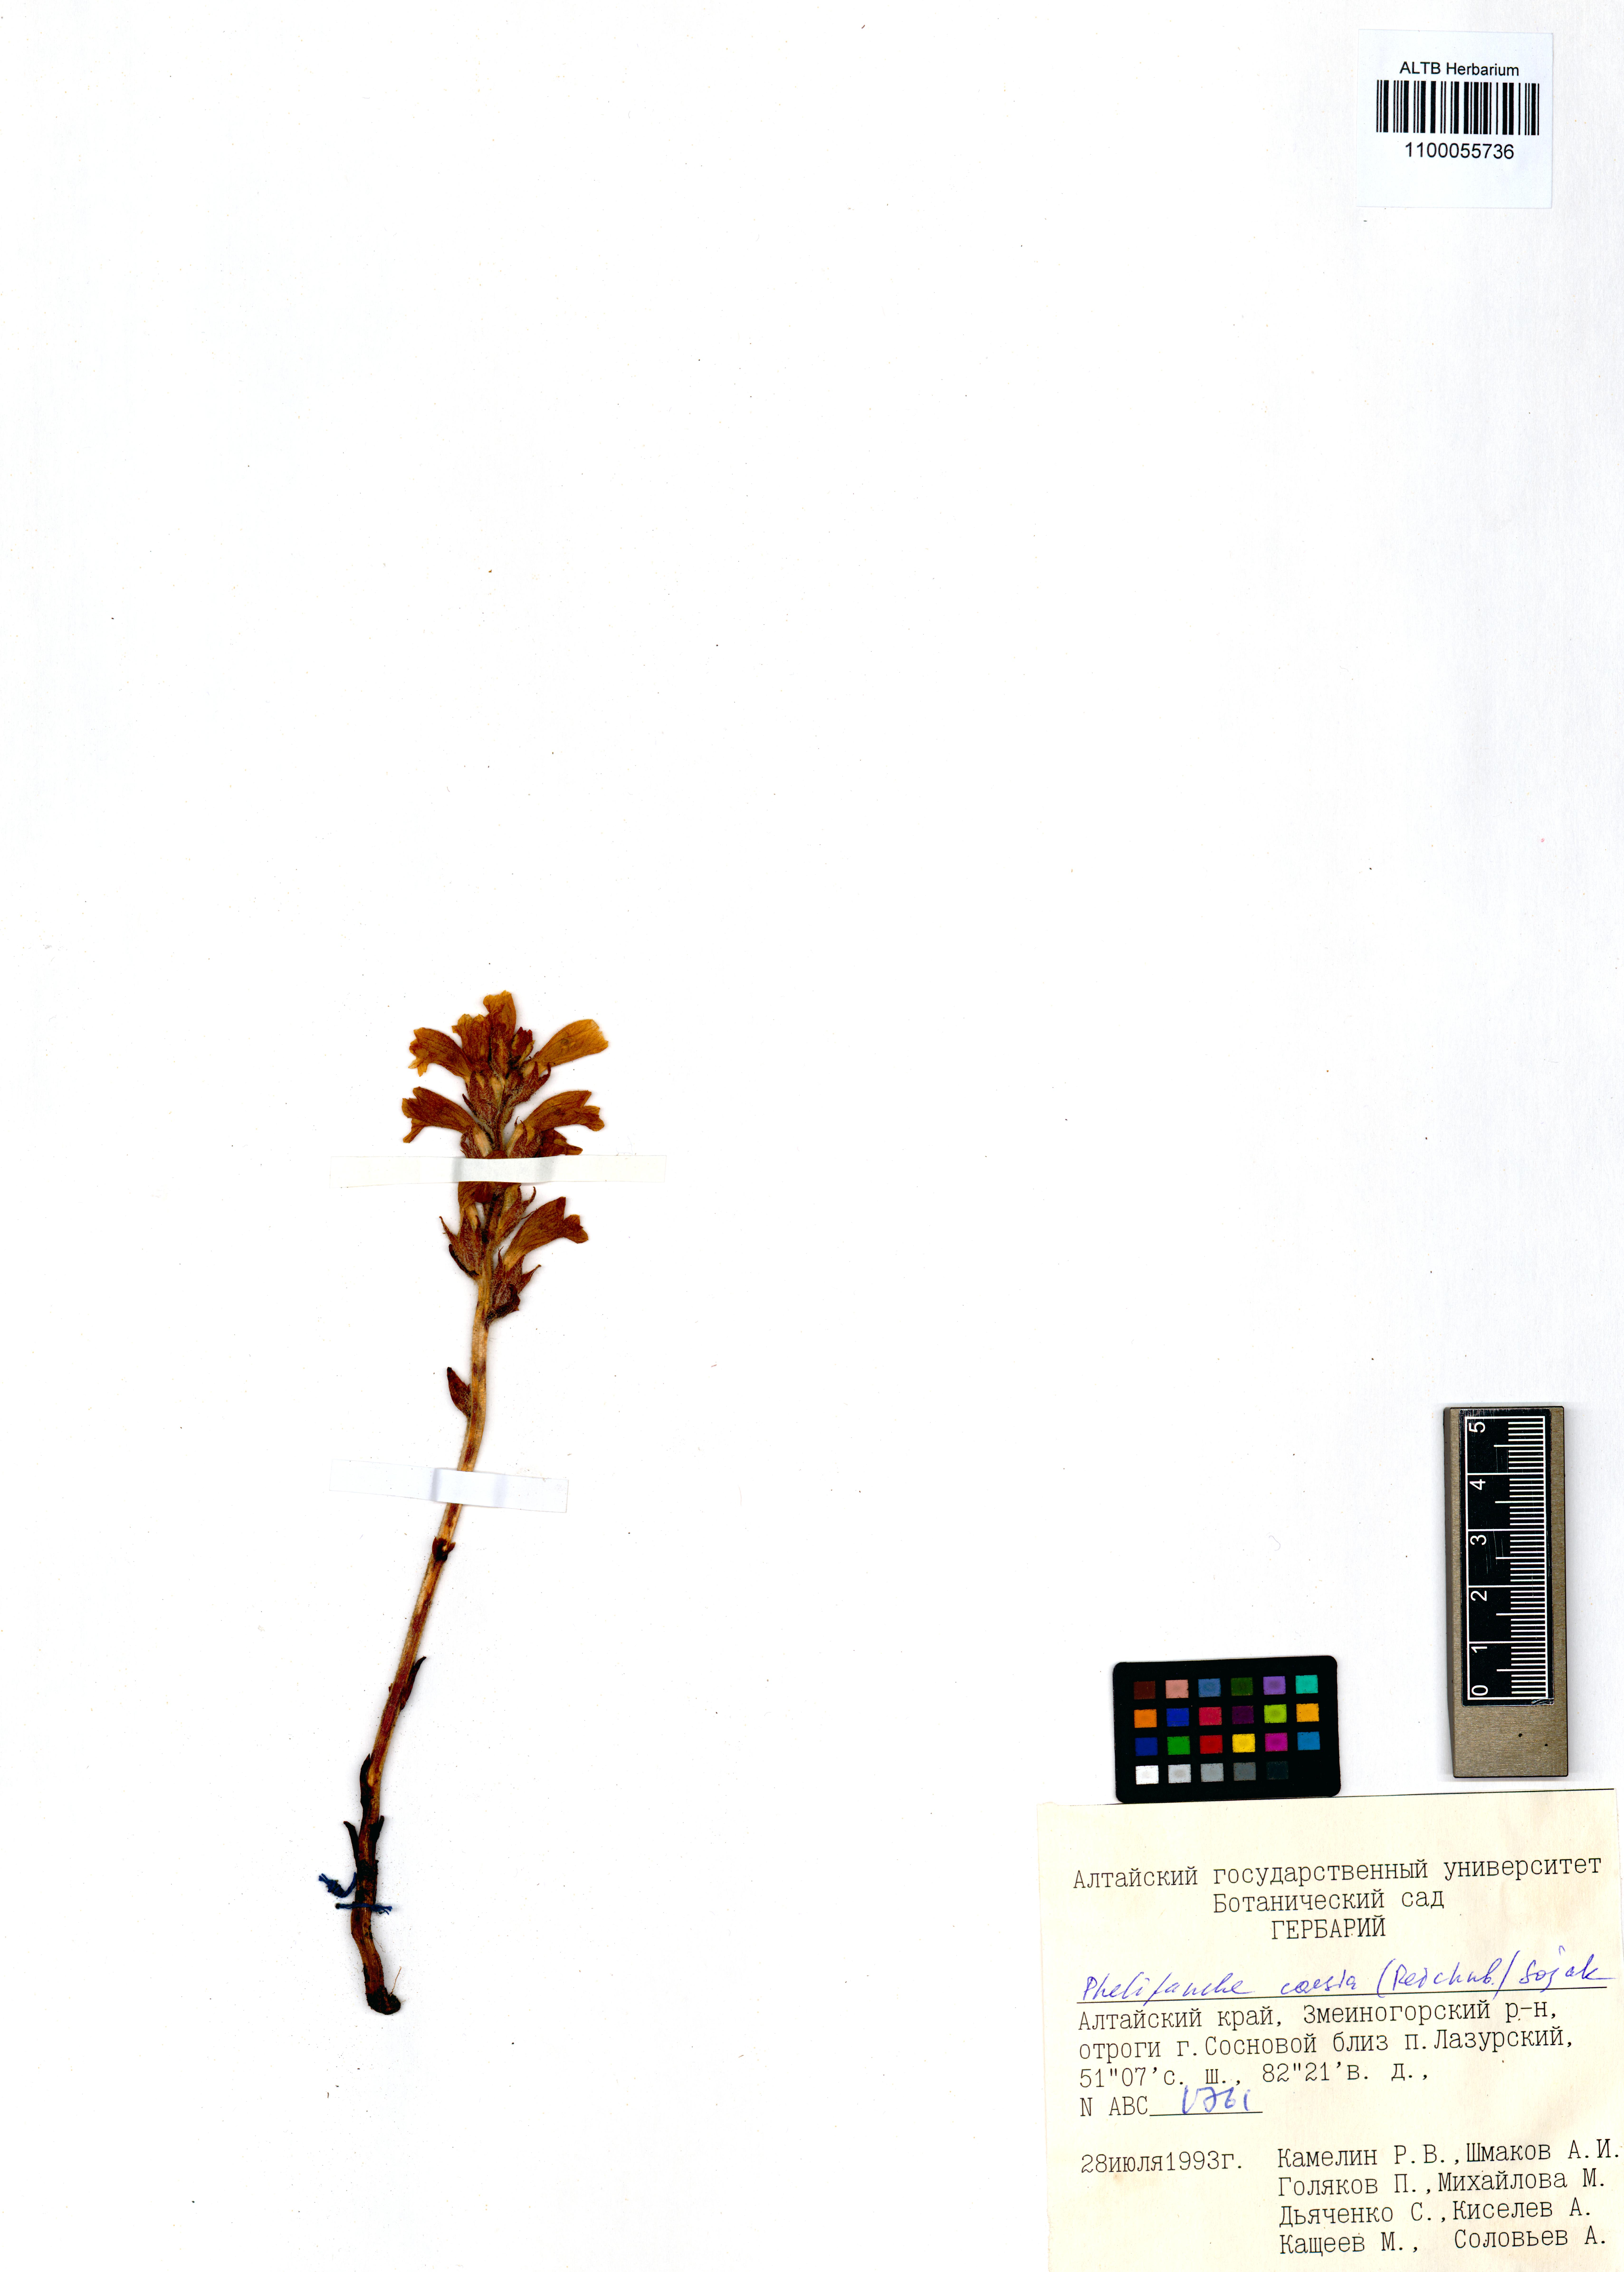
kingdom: Plantae
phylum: Tracheophyta
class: Magnoliopsida
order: Lamiales
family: Orobanchaceae
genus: Phelipanche
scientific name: Phelipanche caesia
